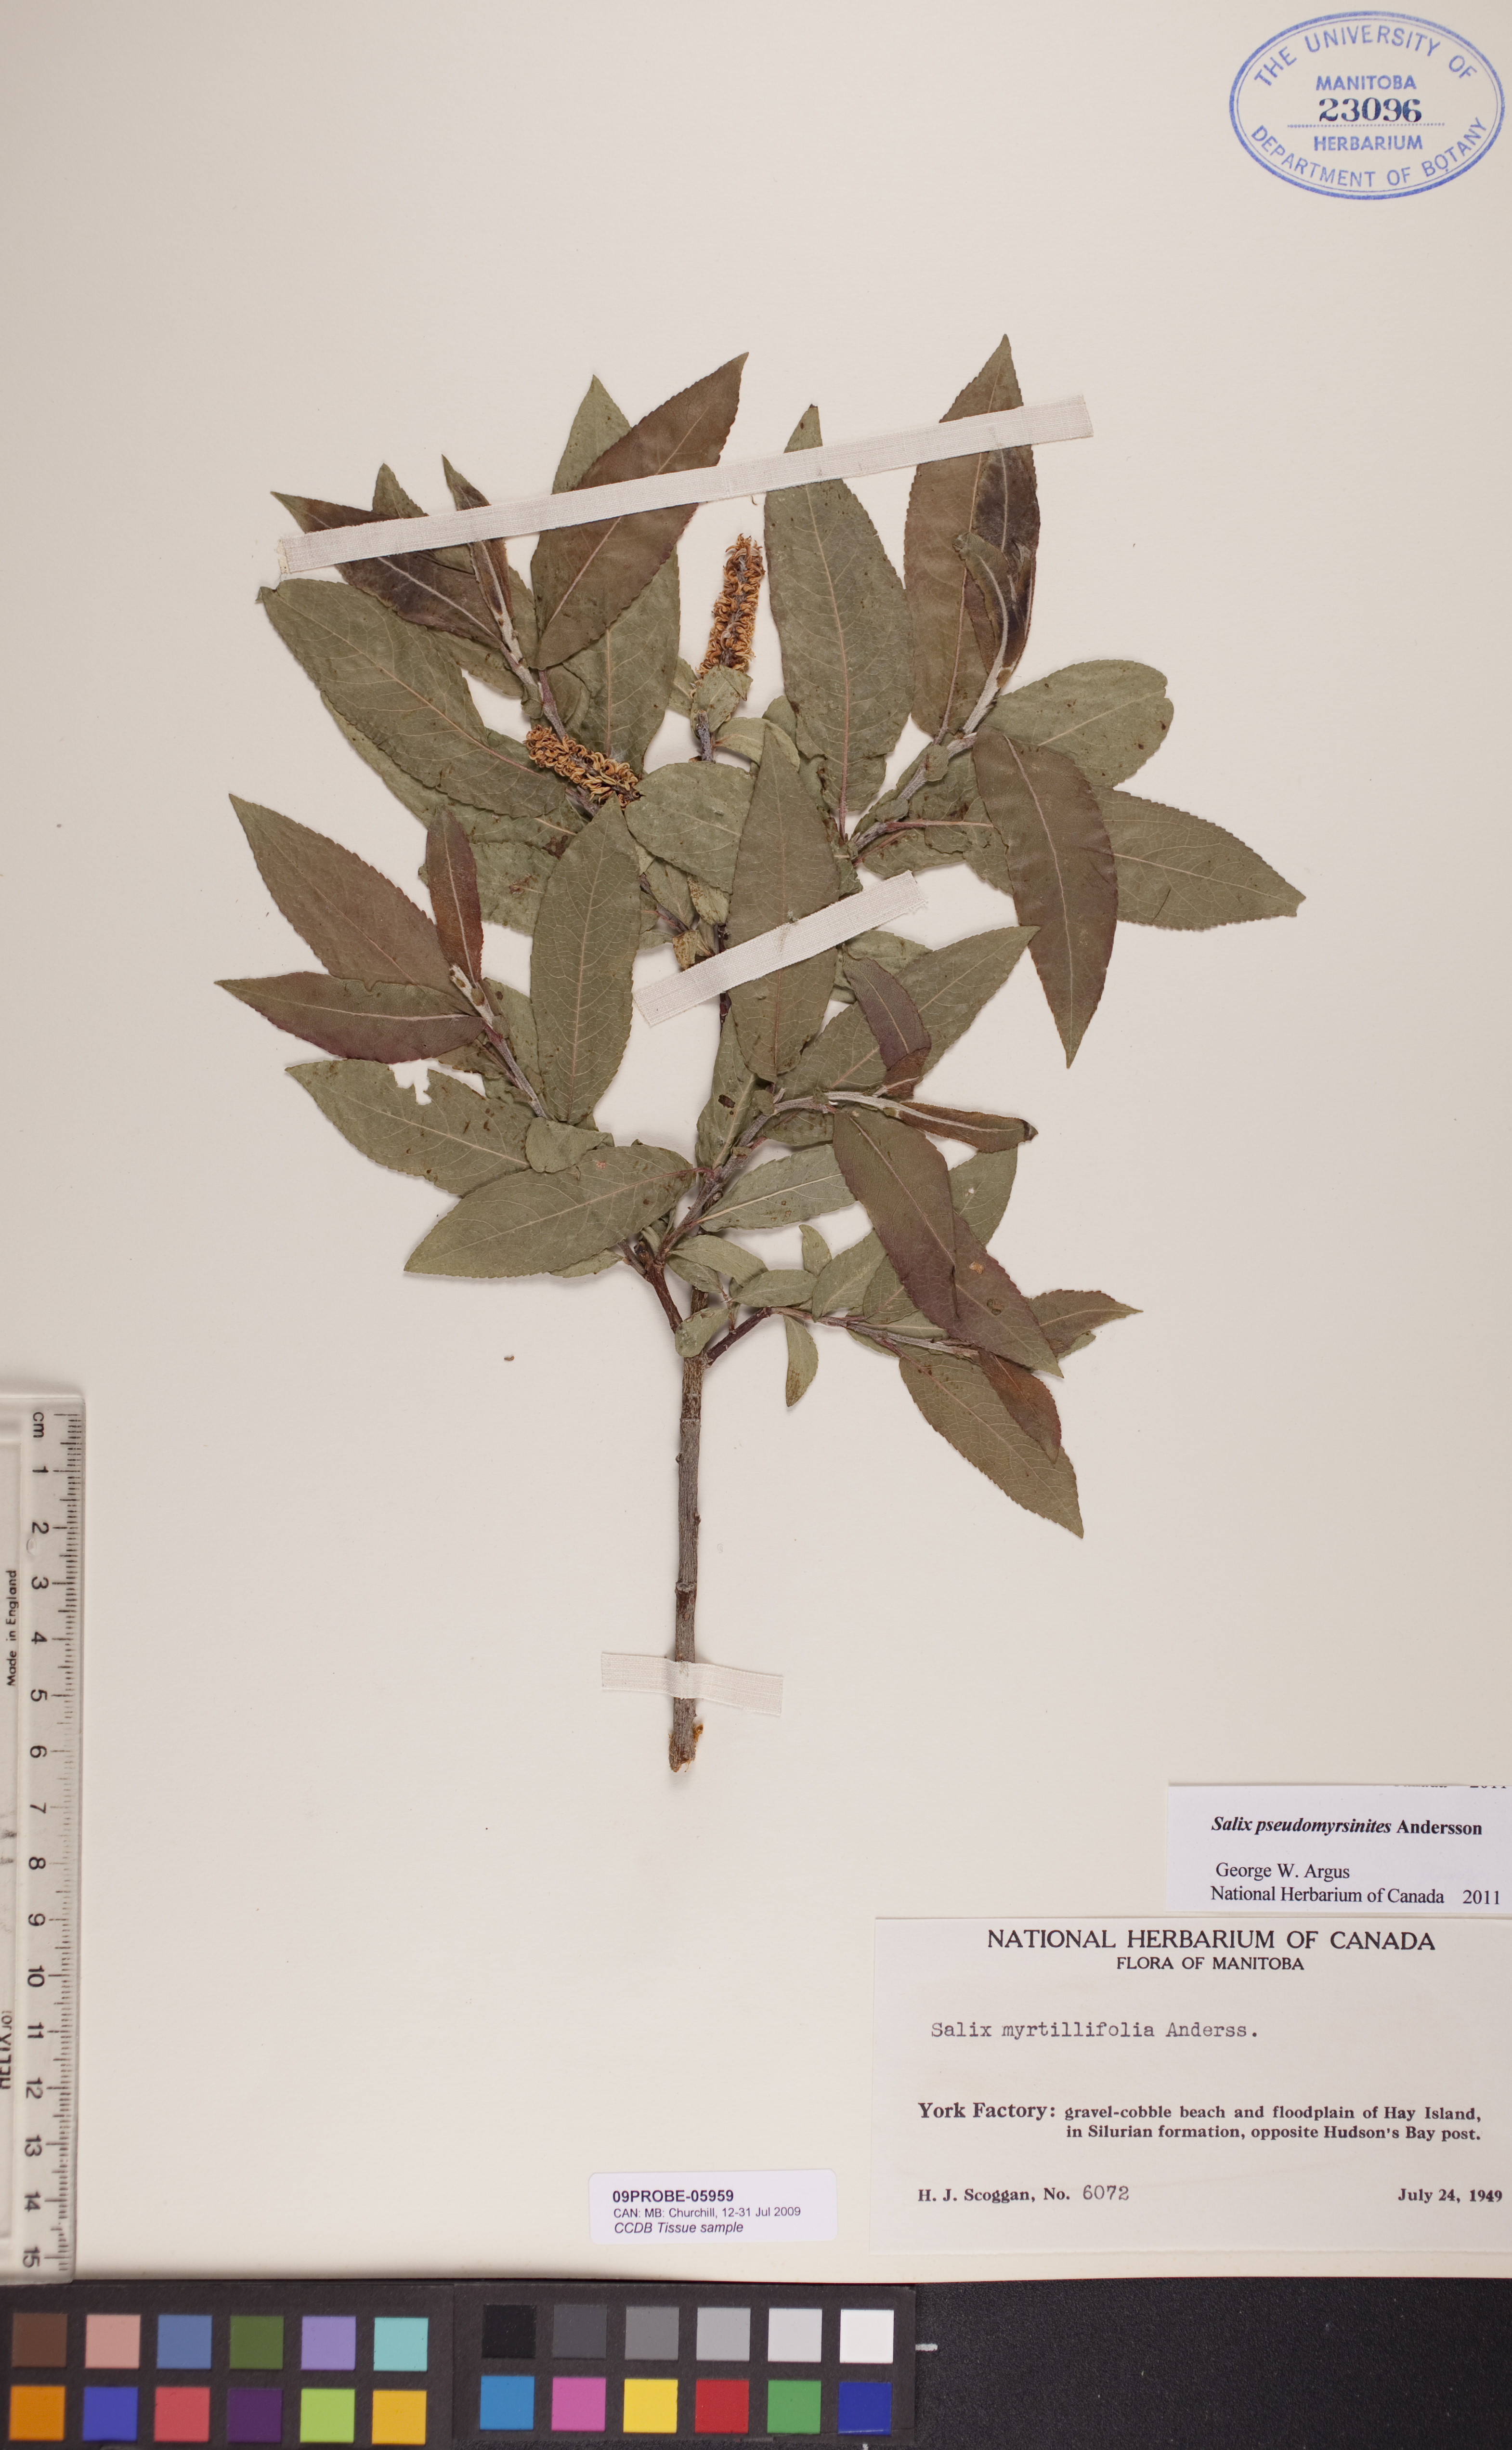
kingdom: Plantae
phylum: Tracheophyta
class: Magnoliopsida
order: Malpighiales
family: Salicaceae
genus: Salix
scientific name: Salix pseudomyrsinites
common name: Tall blueberry willow
